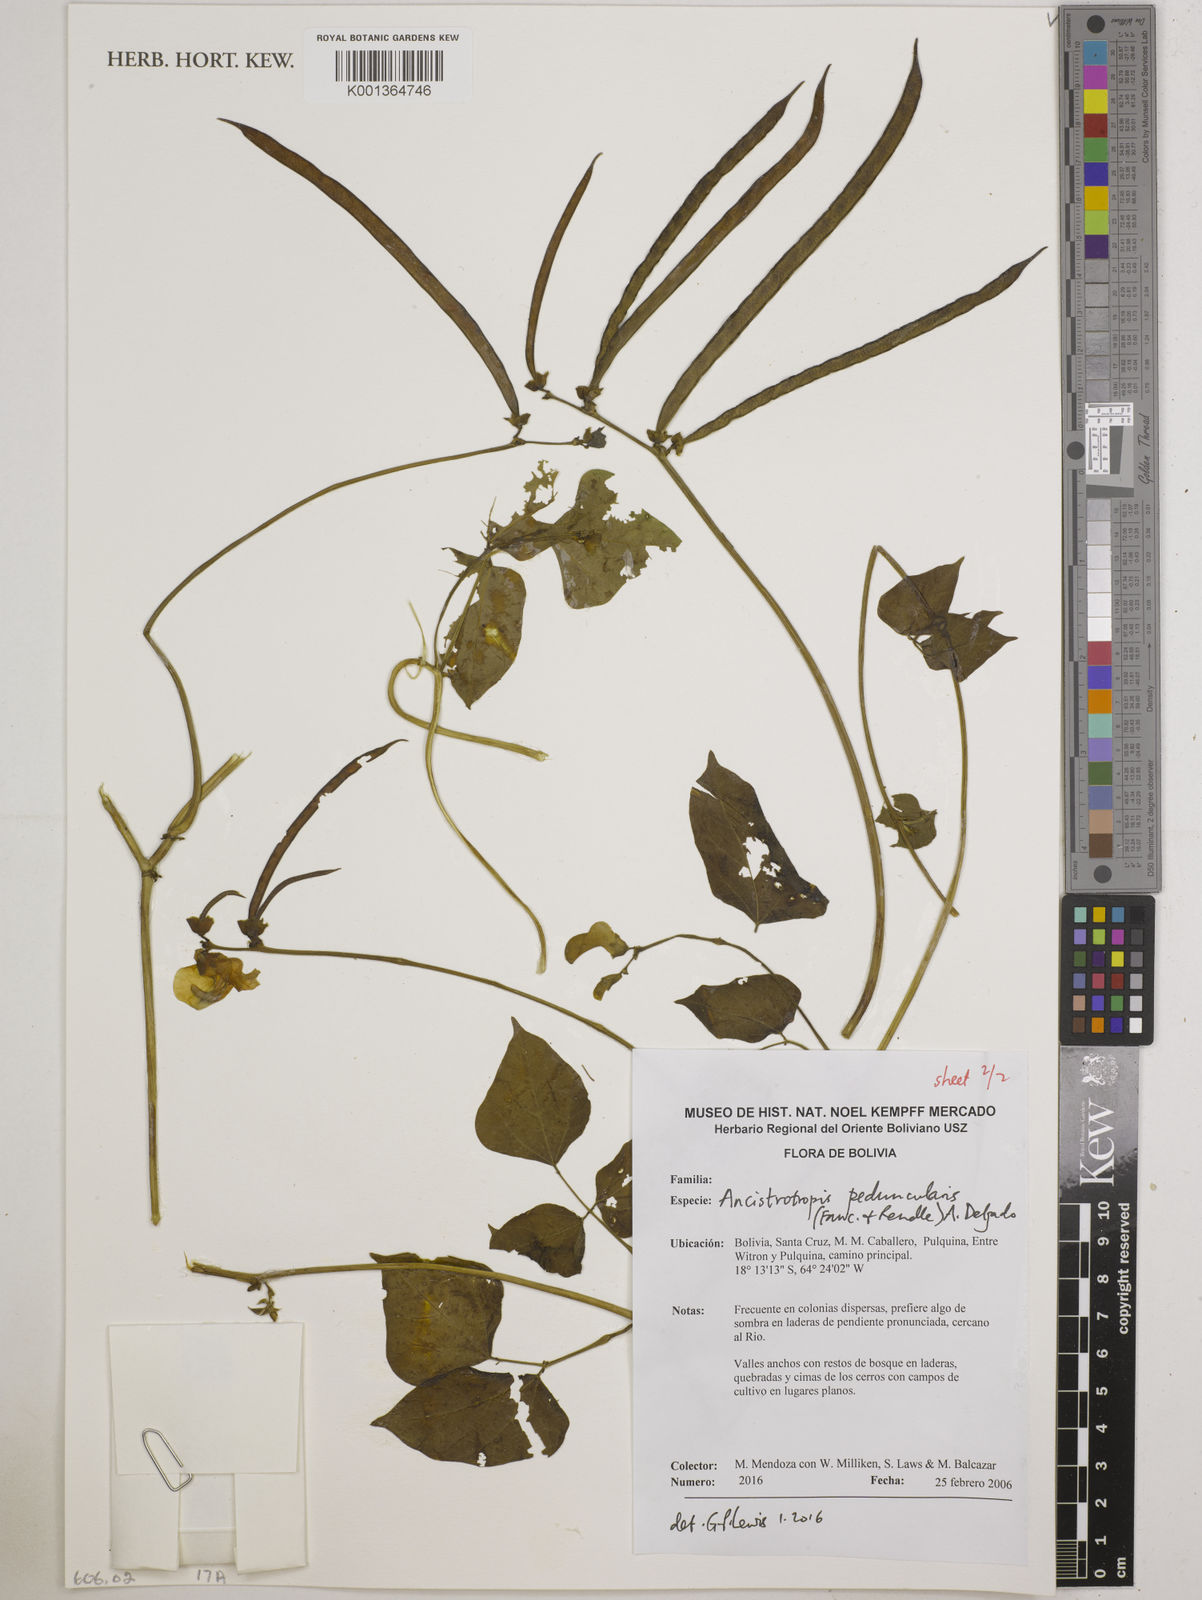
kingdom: Plantae
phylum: Tracheophyta
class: Magnoliopsida
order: Fabales
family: Fabaceae
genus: Ancistrotropis
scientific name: Ancistrotropis peduncularis
